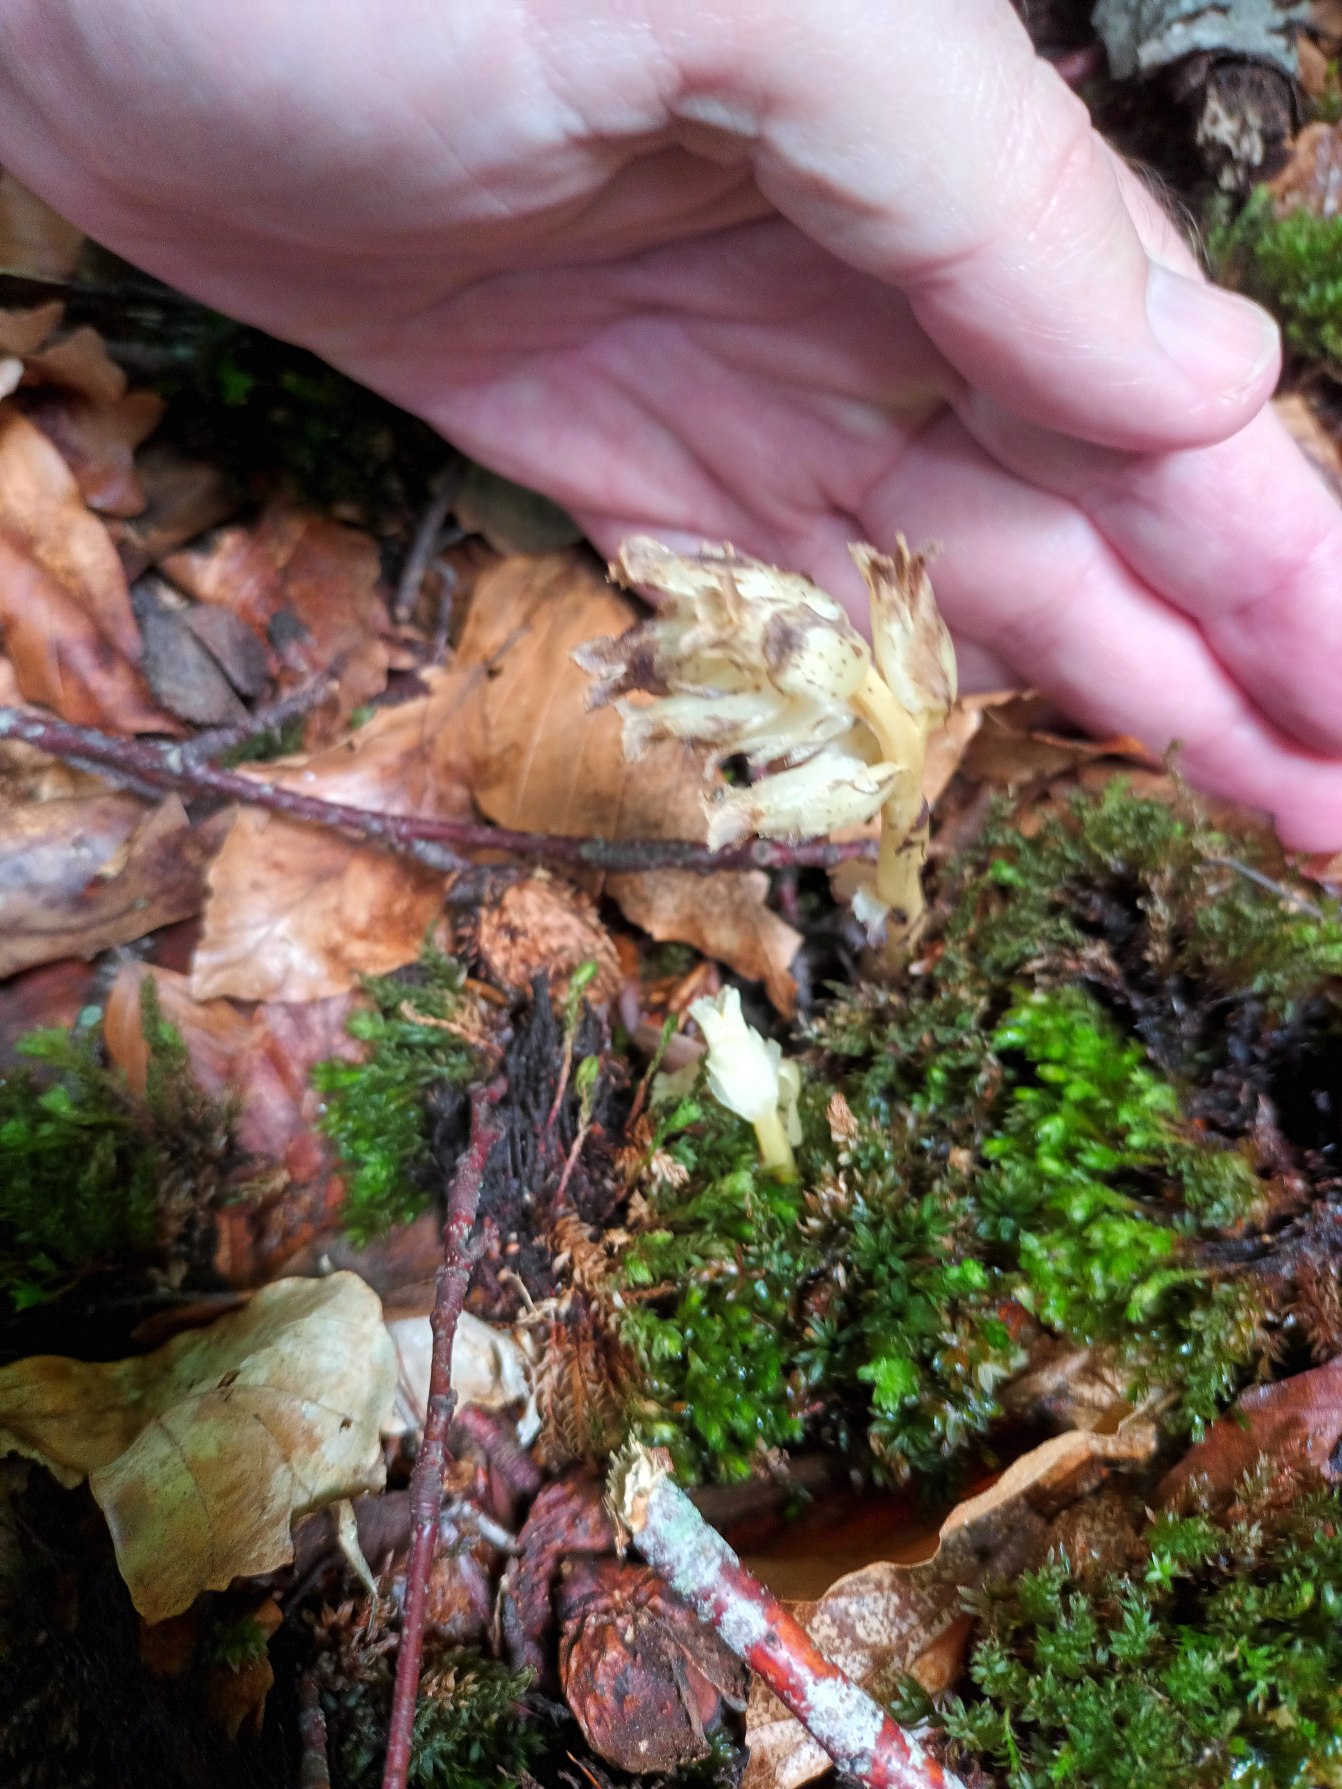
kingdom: Plantae
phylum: Tracheophyta
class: Magnoliopsida
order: Ericales
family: Ericaceae
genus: Hypopitys
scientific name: Hypopitys monotropa
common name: Snylterod
